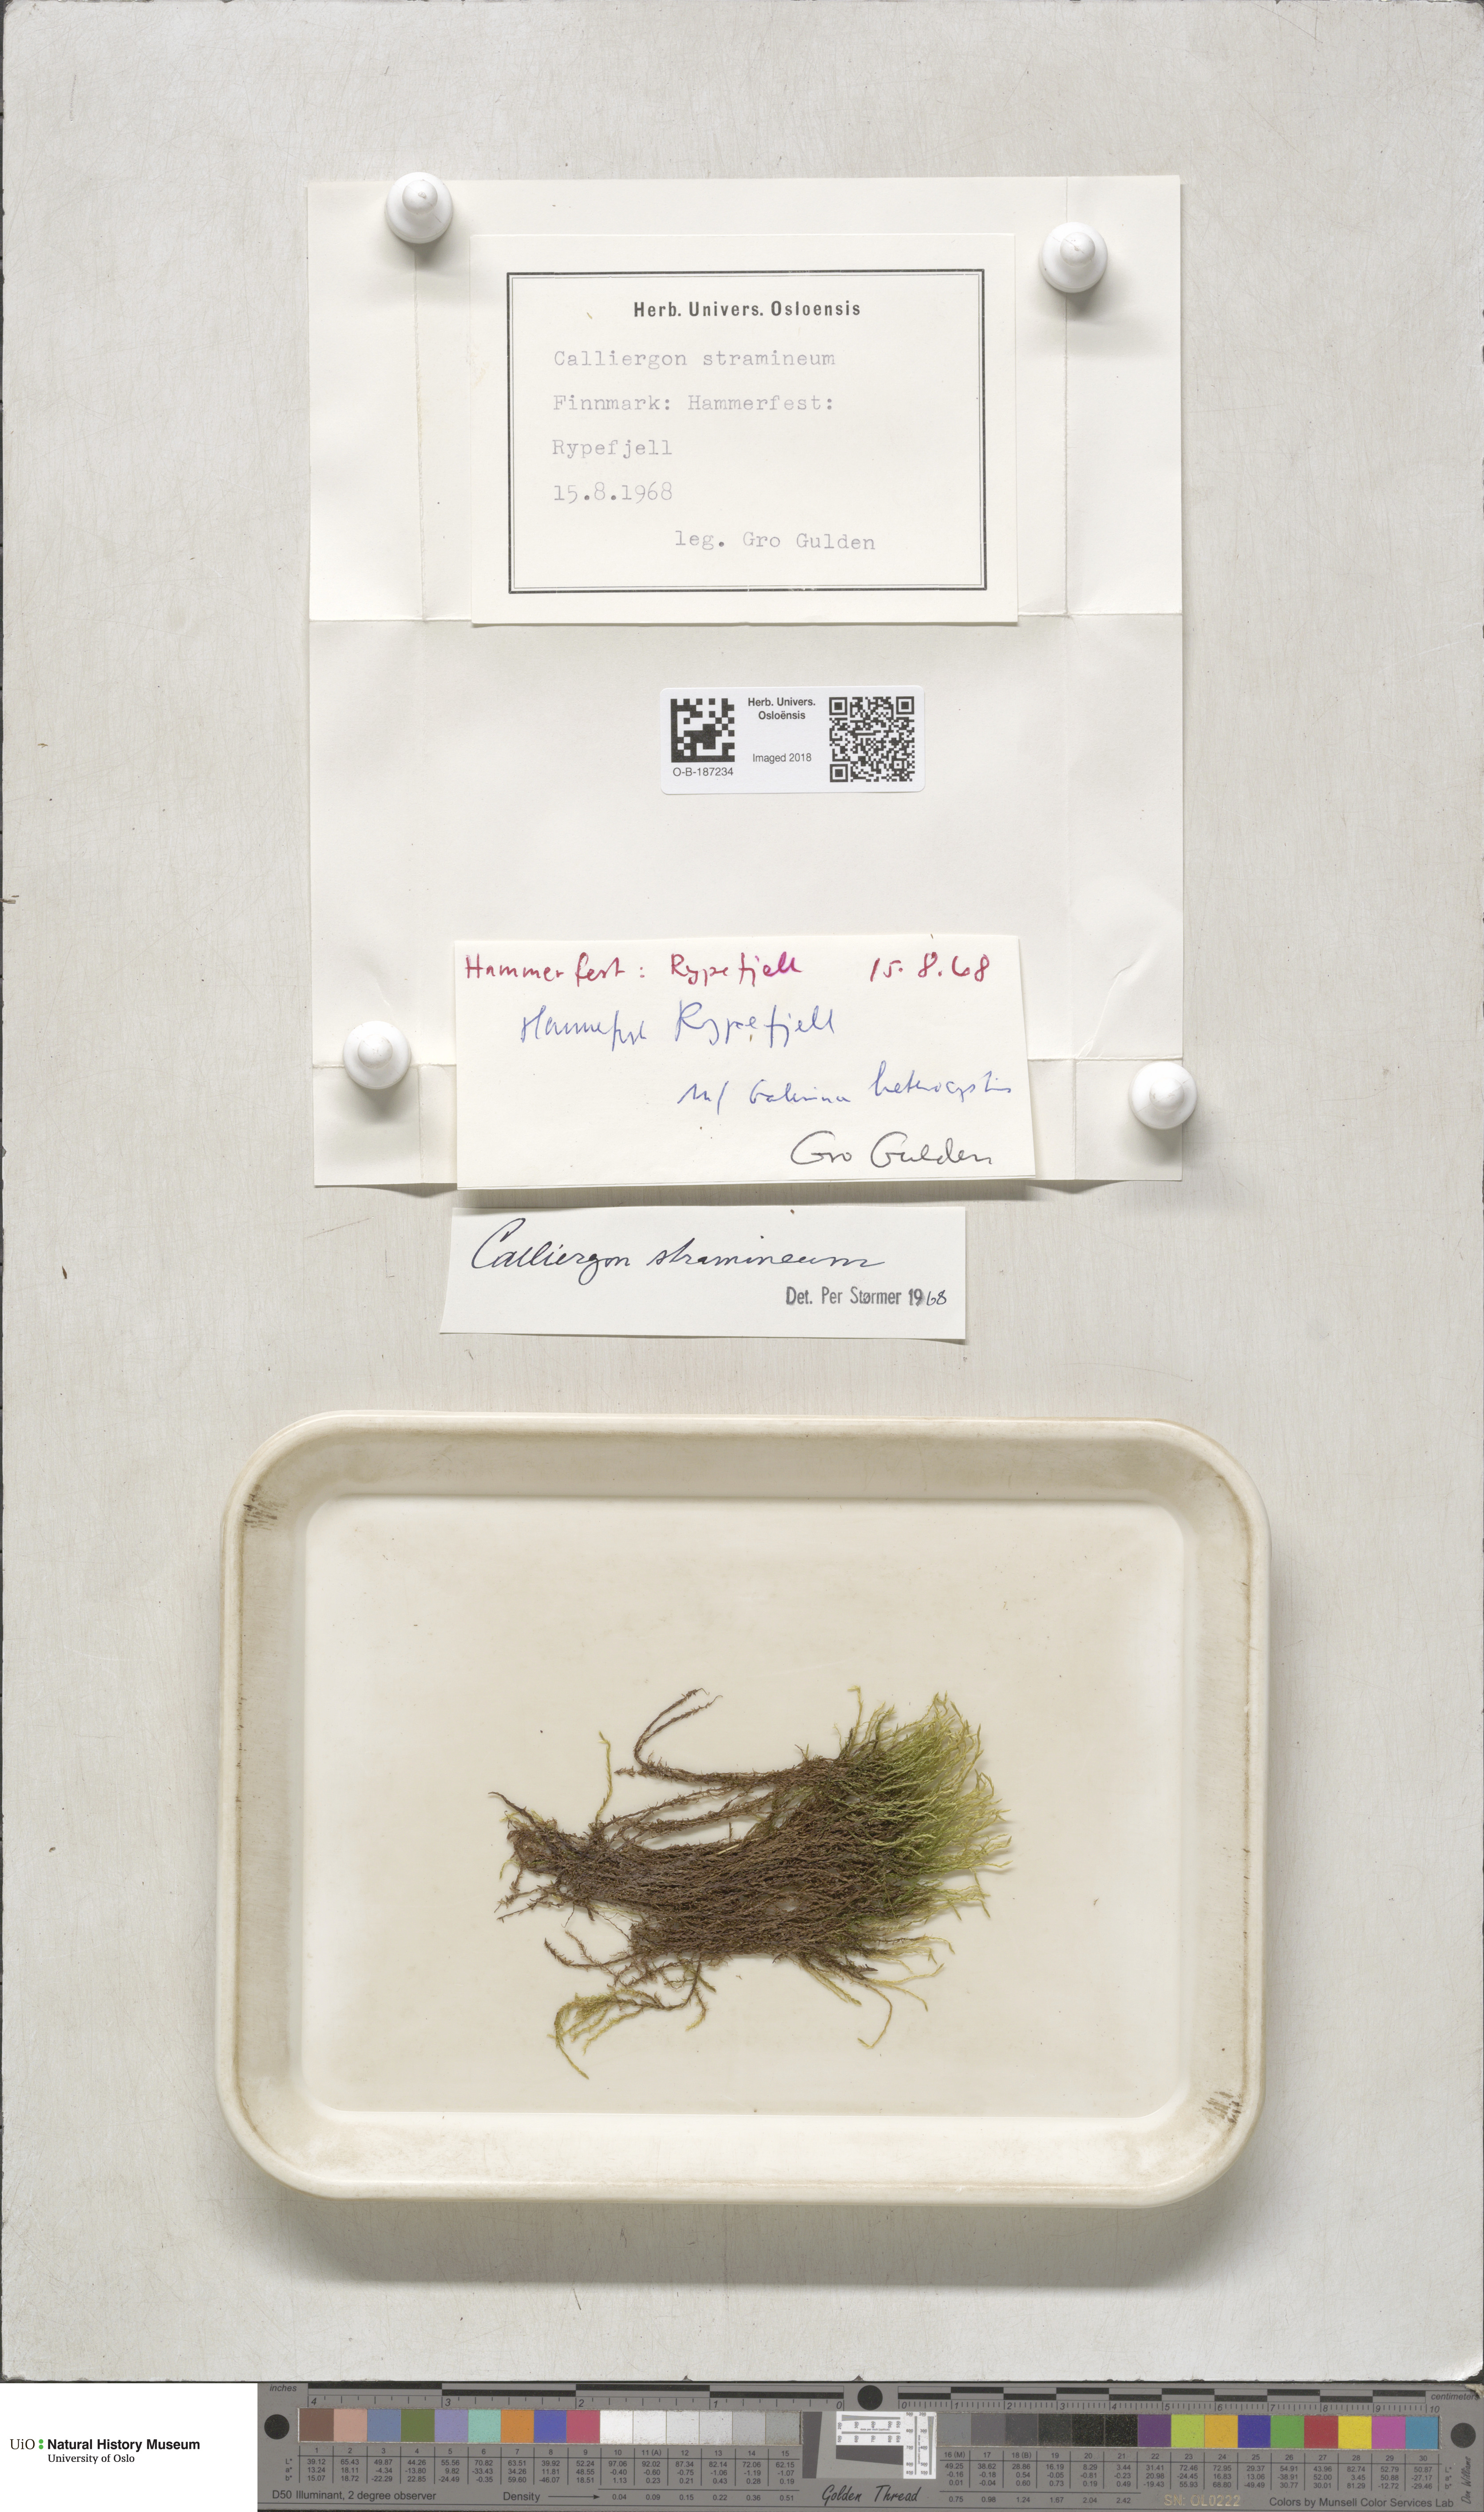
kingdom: Plantae
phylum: Bryophyta
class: Bryopsida
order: Hypnales
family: Calliergonaceae
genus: Straminergon
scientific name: Straminergon stramineum
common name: Straw moss
